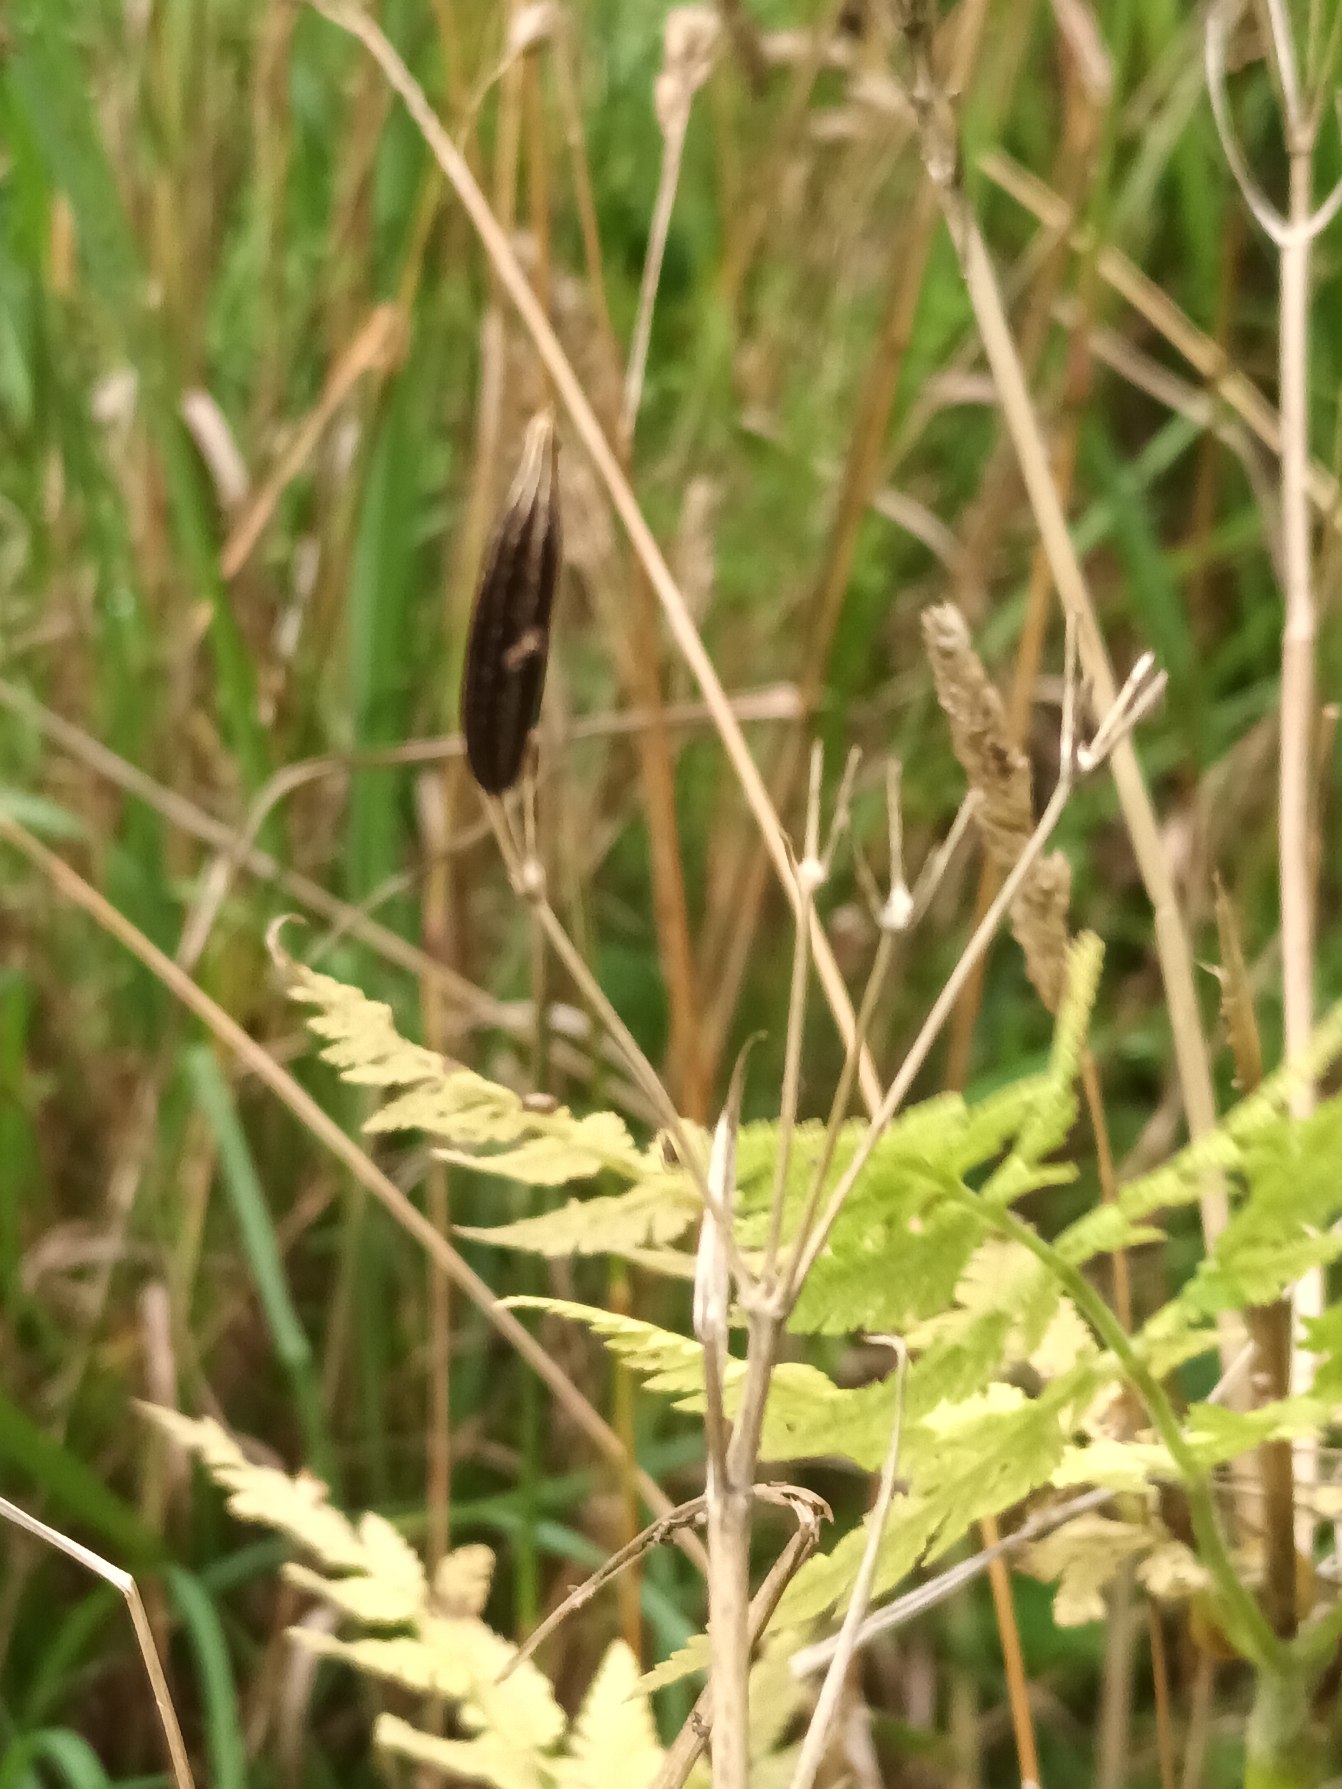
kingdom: Plantae
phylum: Tracheophyta
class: Magnoliopsida
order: Apiales
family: Apiaceae
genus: Myrrhis
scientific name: Myrrhis odorata
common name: Sødskærm
